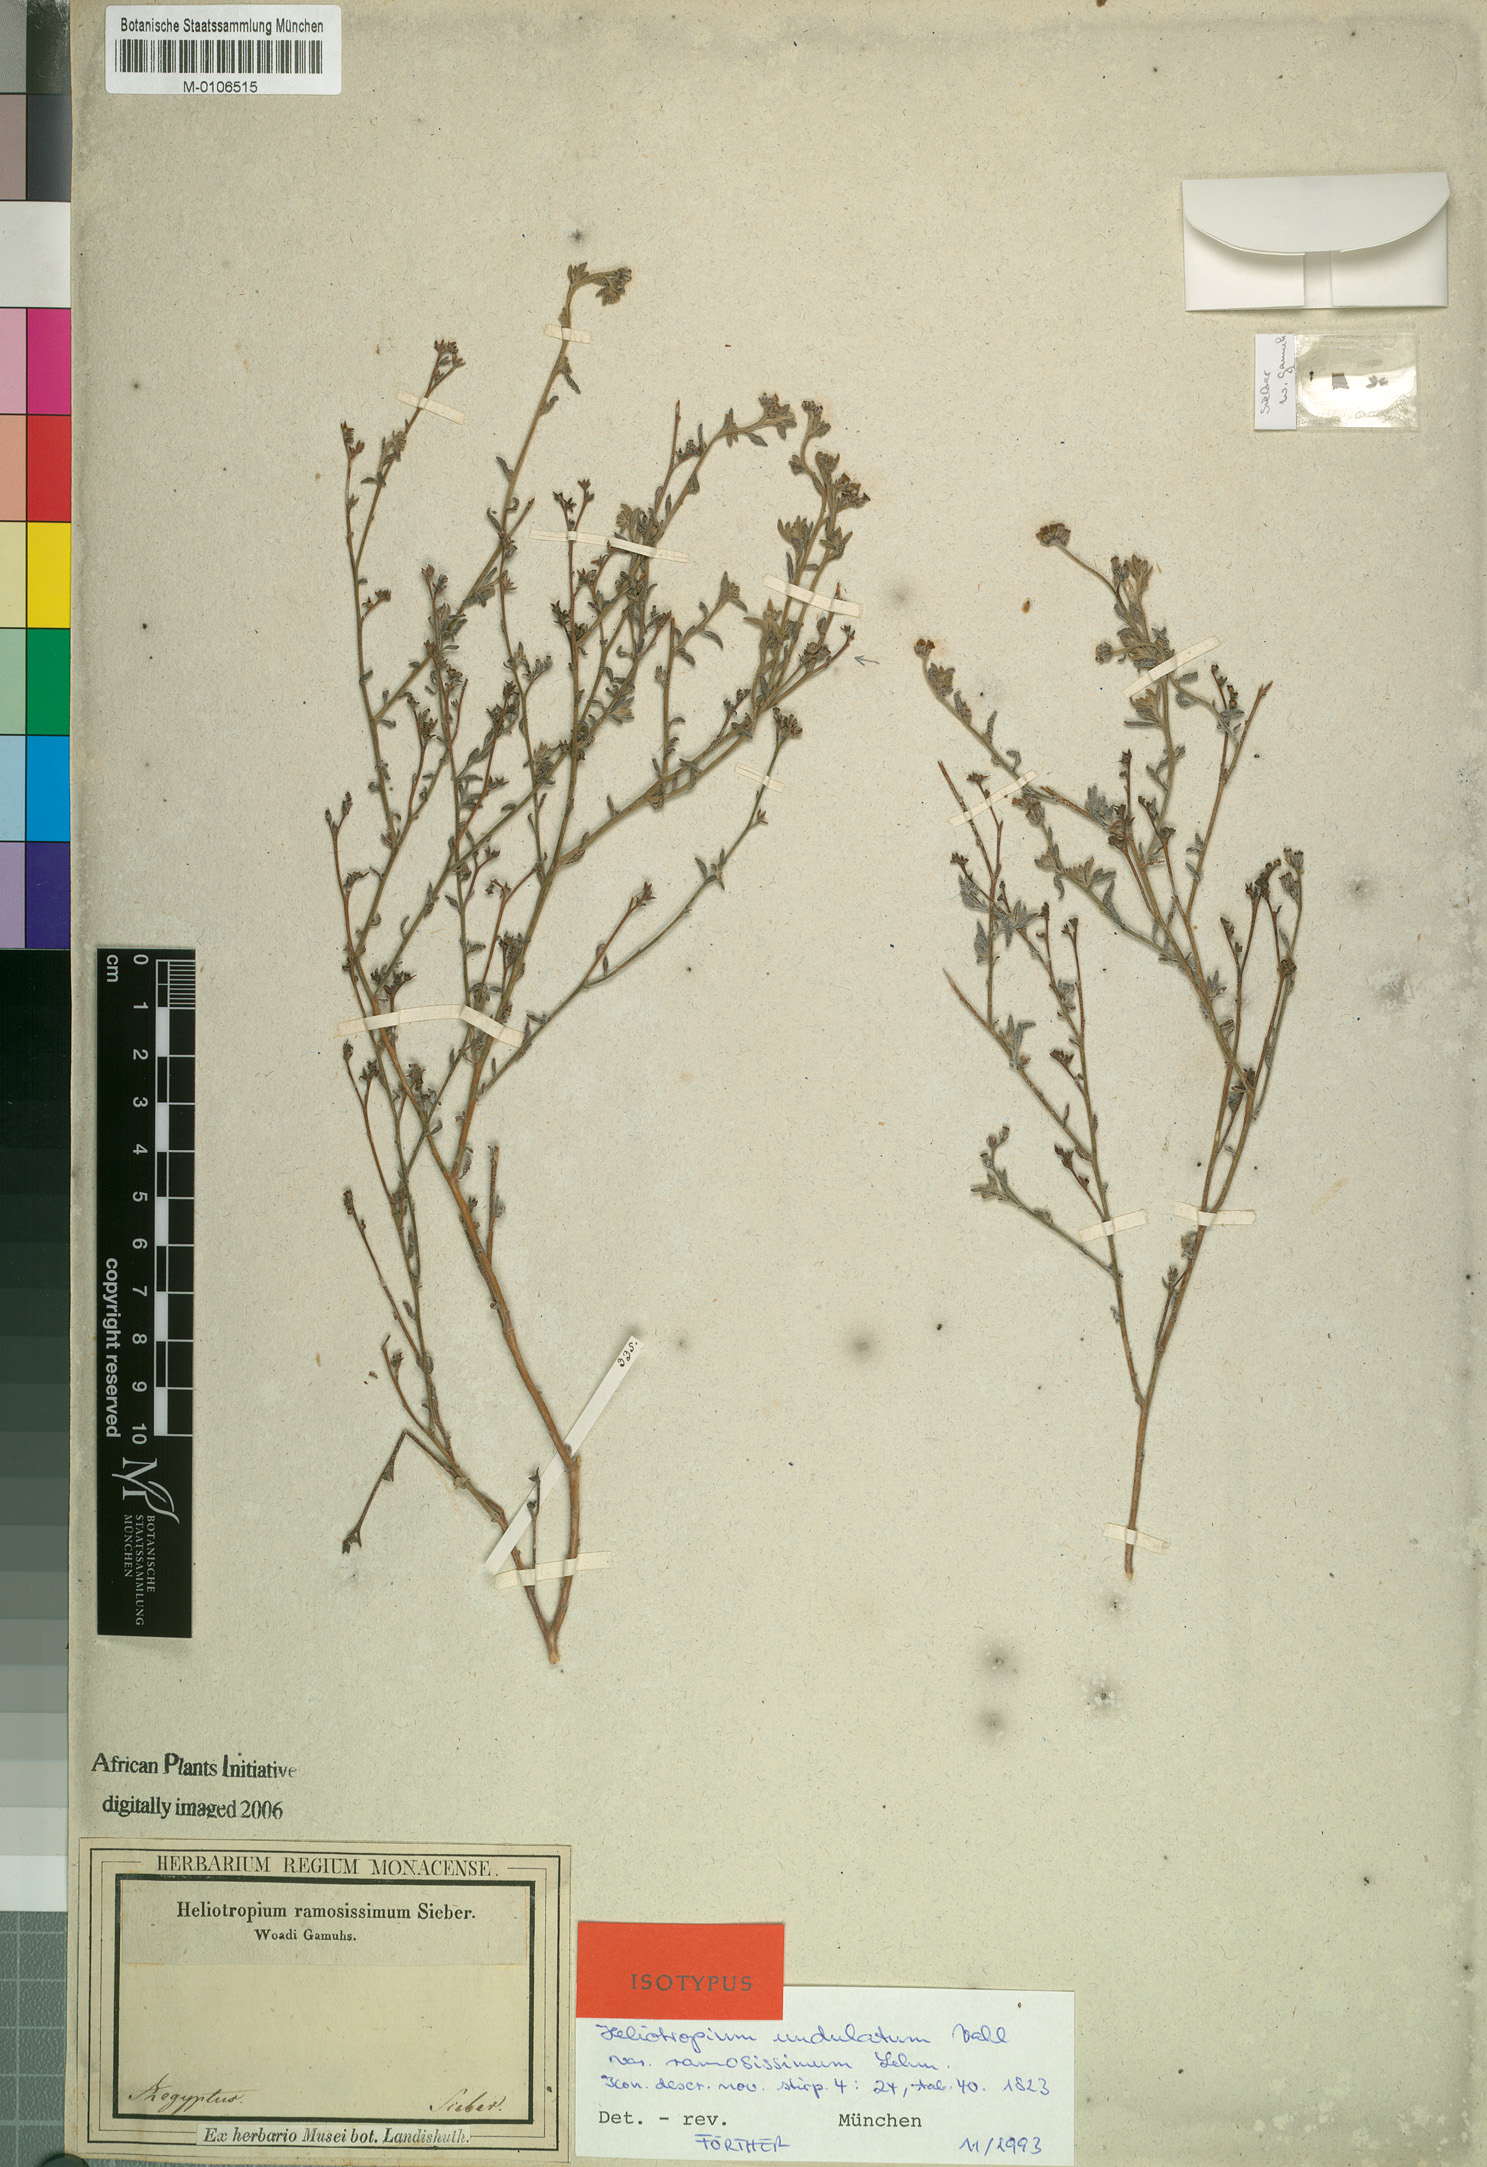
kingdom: Plantae
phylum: Tracheophyta
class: Magnoliopsida
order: Boraginales
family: Heliotropiaceae
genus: Heliotropium
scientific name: Heliotropium bacciferum
